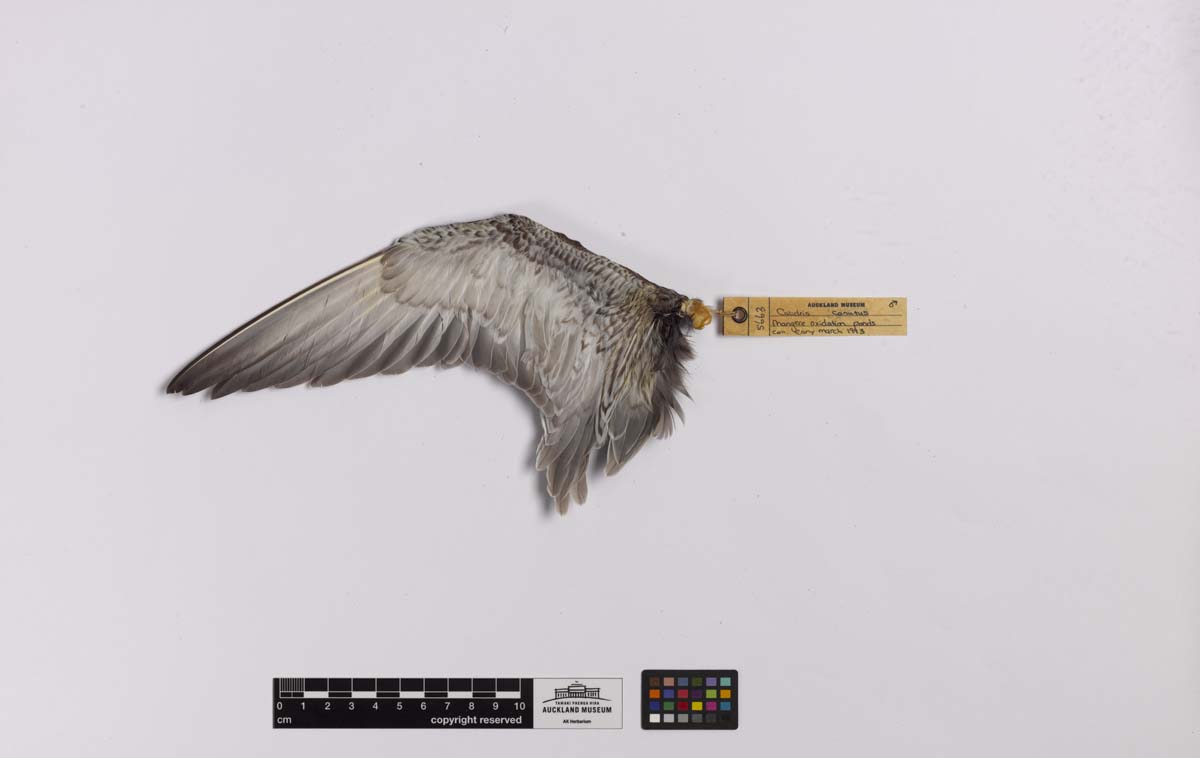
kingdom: Animalia
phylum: Chordata
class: Aves
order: Charadriiformes
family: Scolopacidae
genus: Calidris
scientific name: Calidris canutus
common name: Red knot
